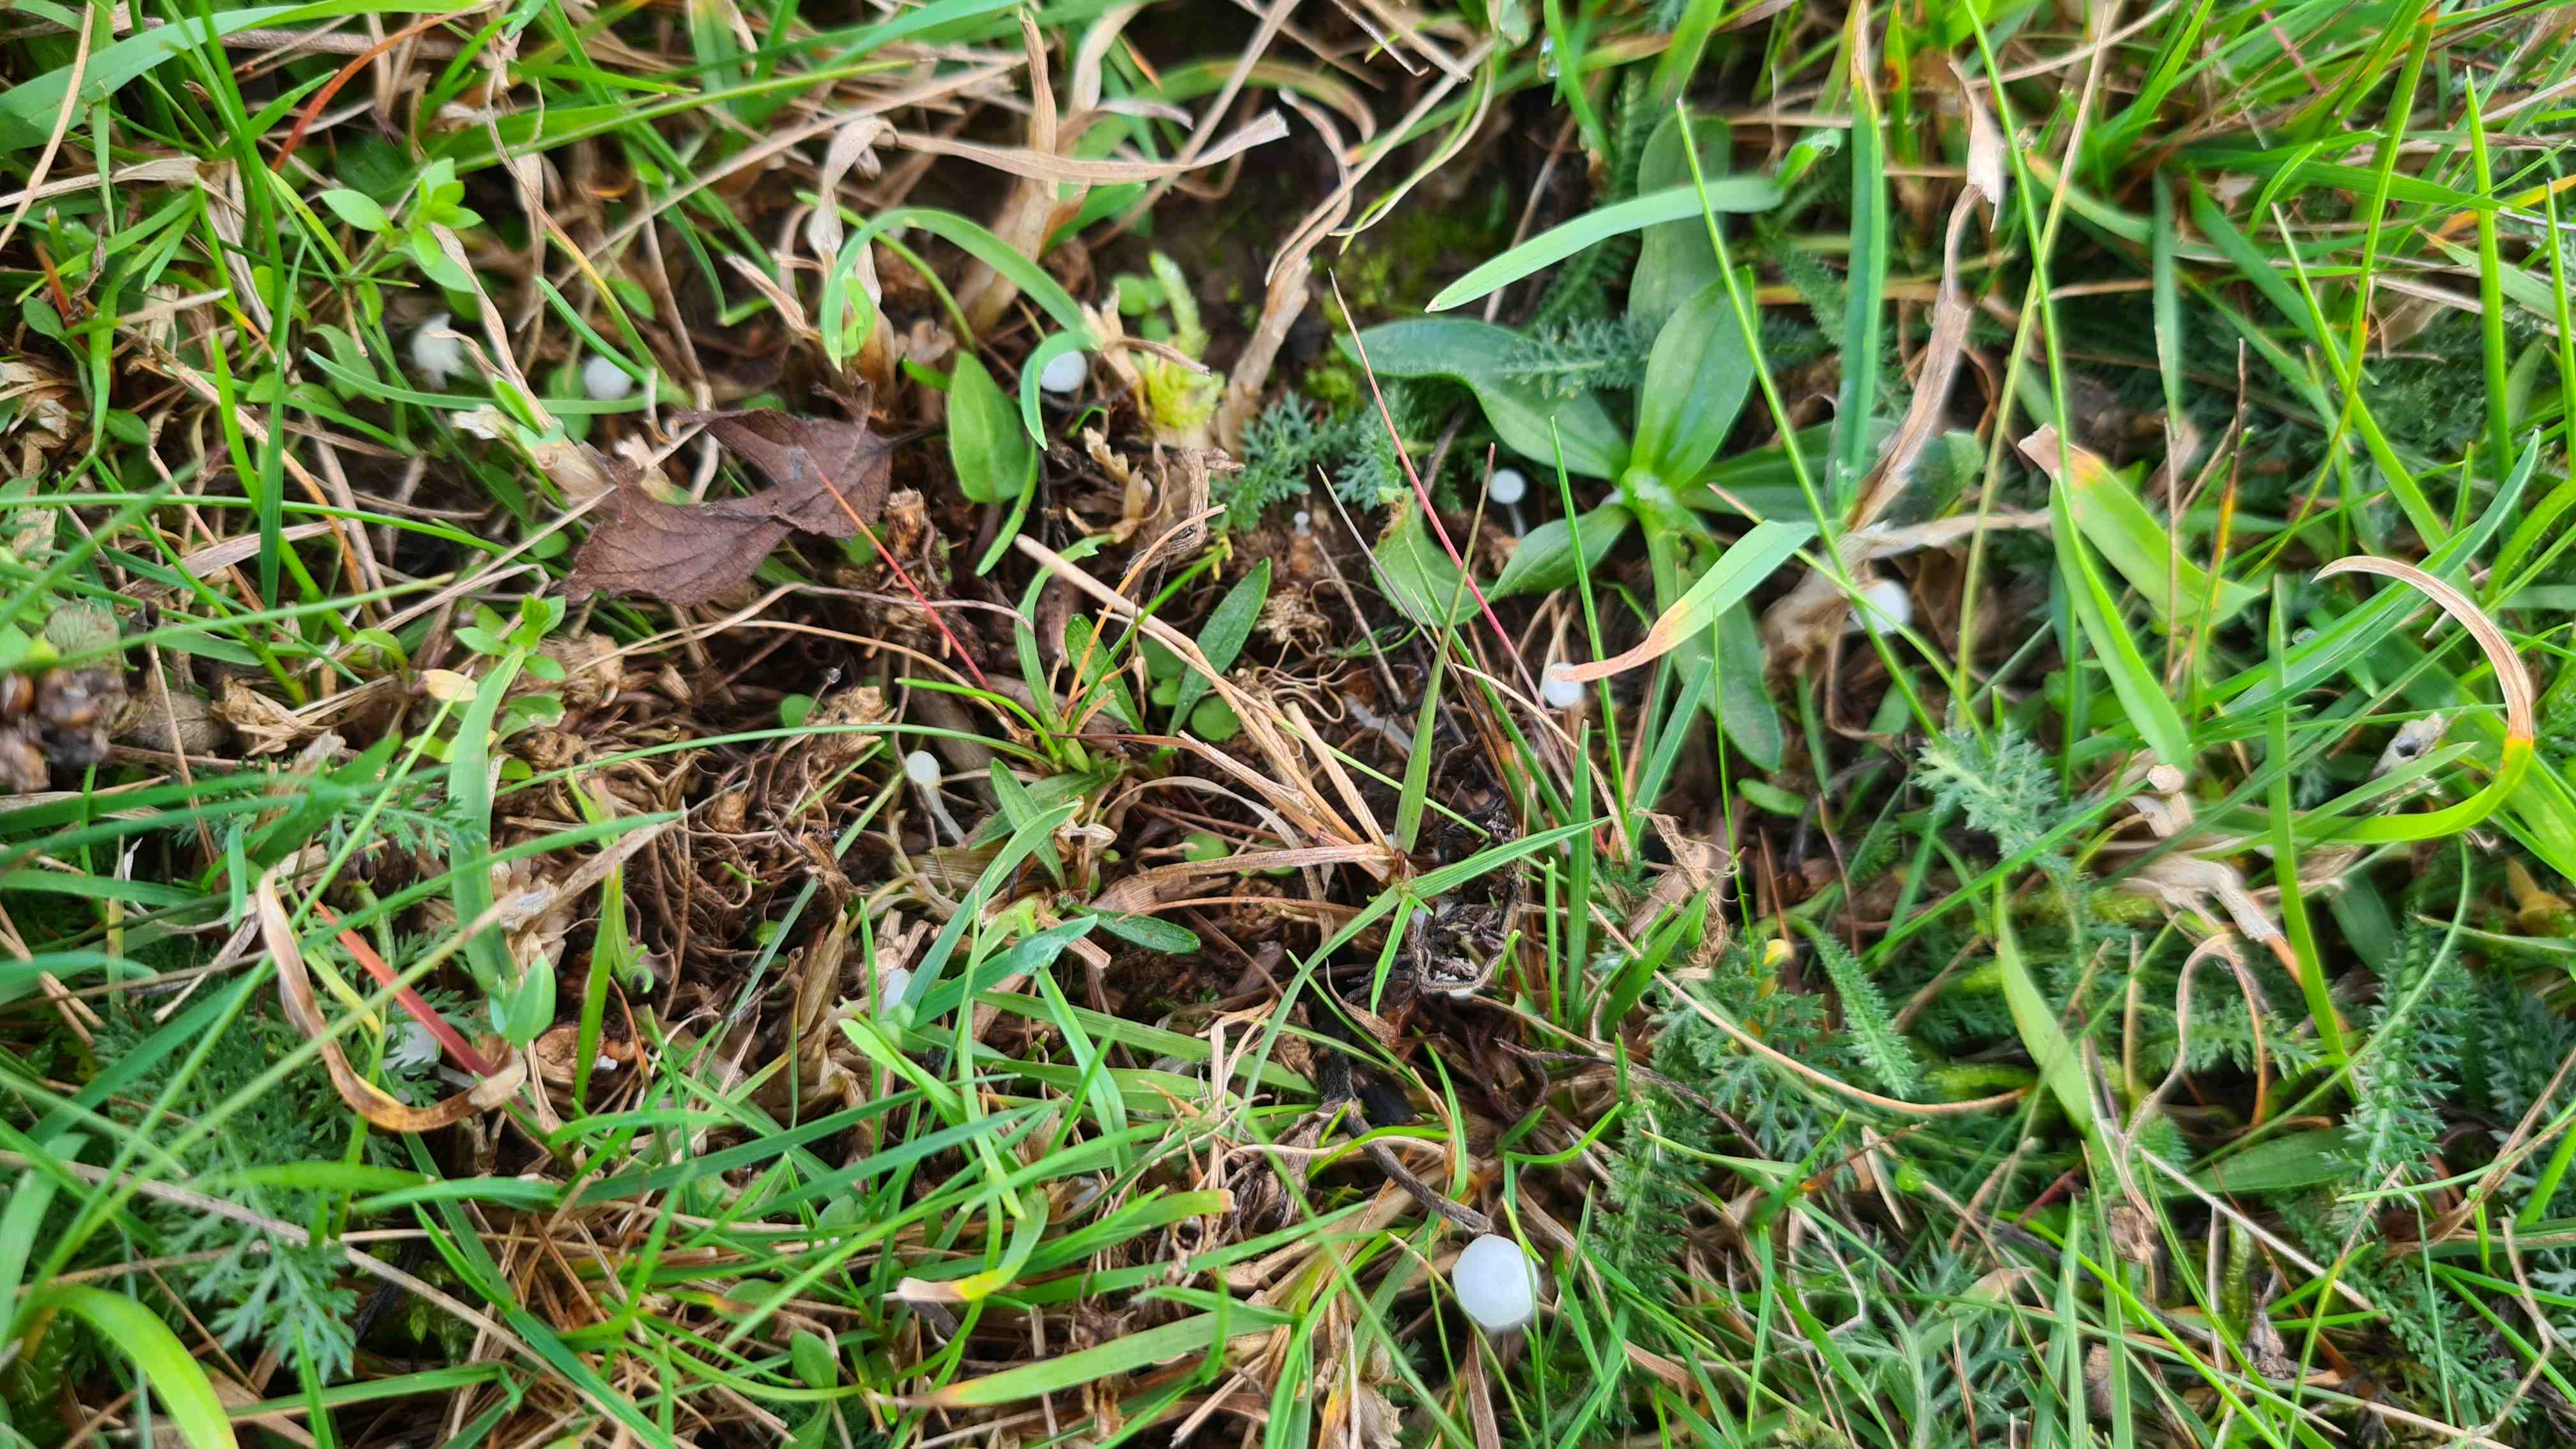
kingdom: Fungi
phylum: Basidiomycota
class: Agaricomycetes
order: Agaricales
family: Mycenaceae
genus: Atheniella
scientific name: Atheniella delectabilis
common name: nitrøs huesvamp
